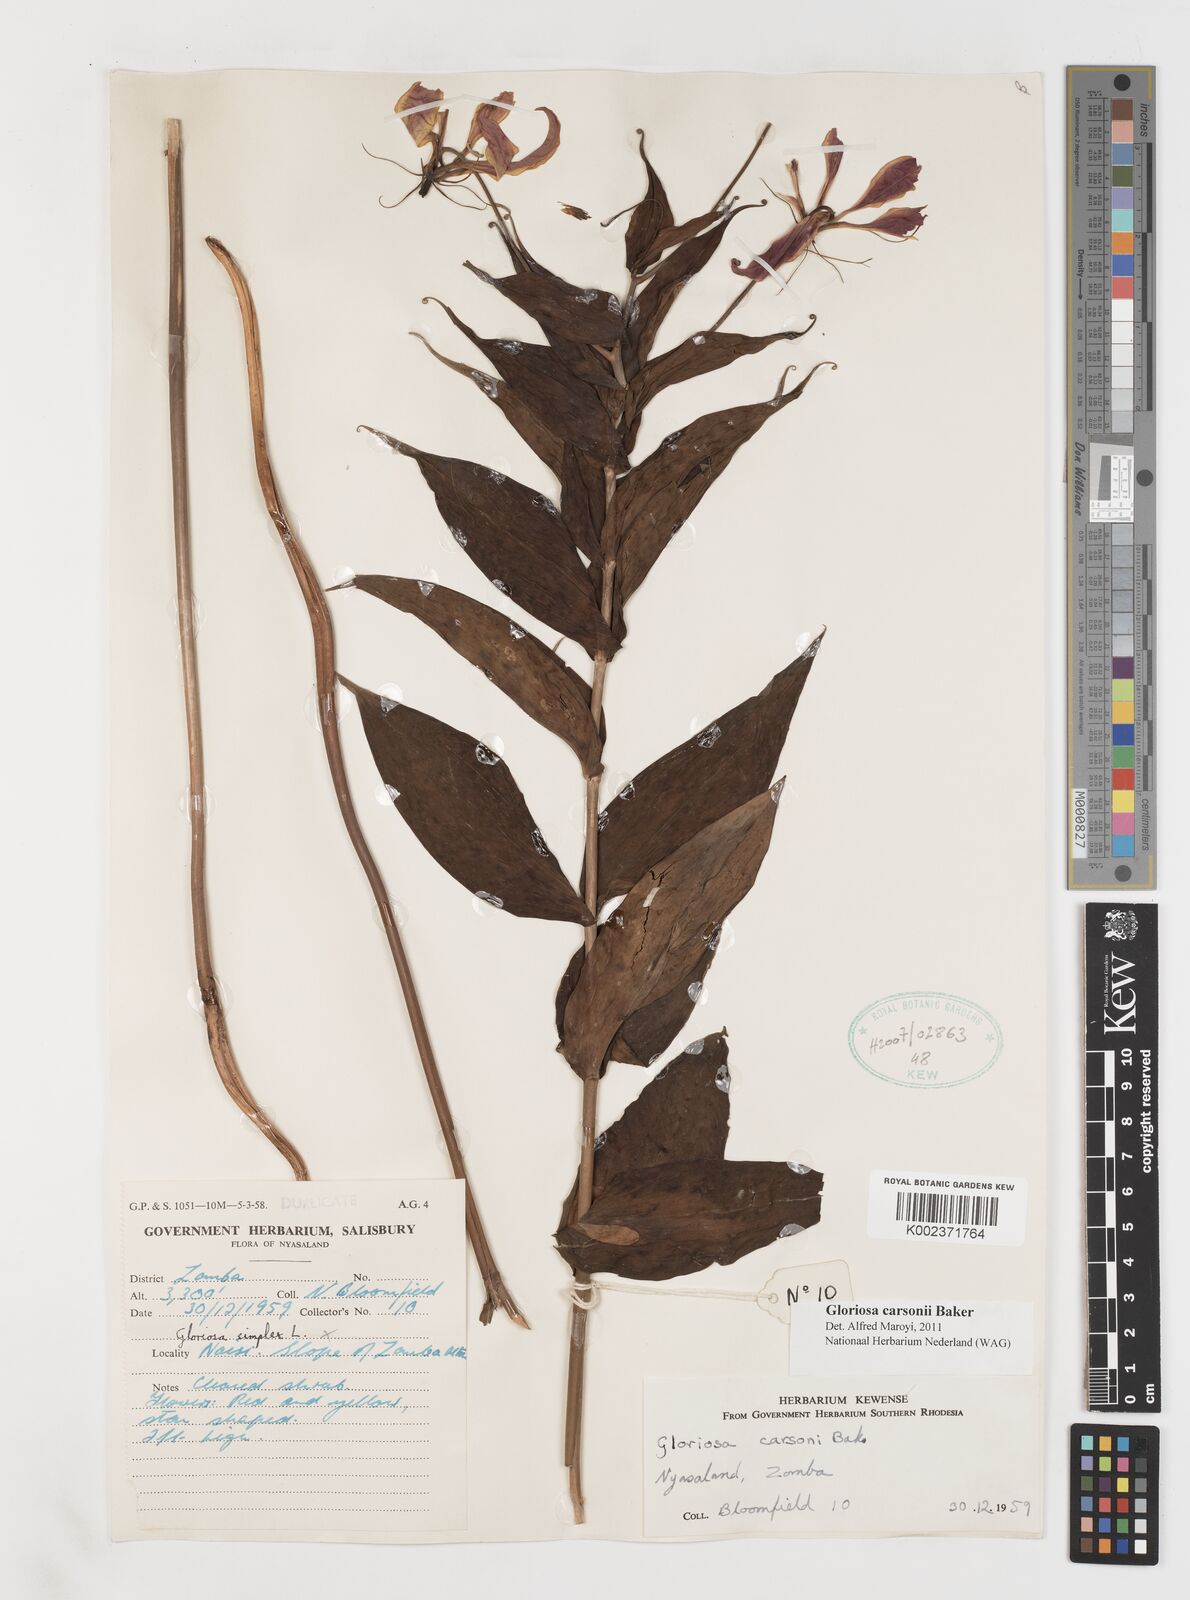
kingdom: Plantae
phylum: Tracheophyta
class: Liliopsida
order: Liliales
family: Colchicaceae
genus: Gloriosa
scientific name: Gloriosa carsonii
